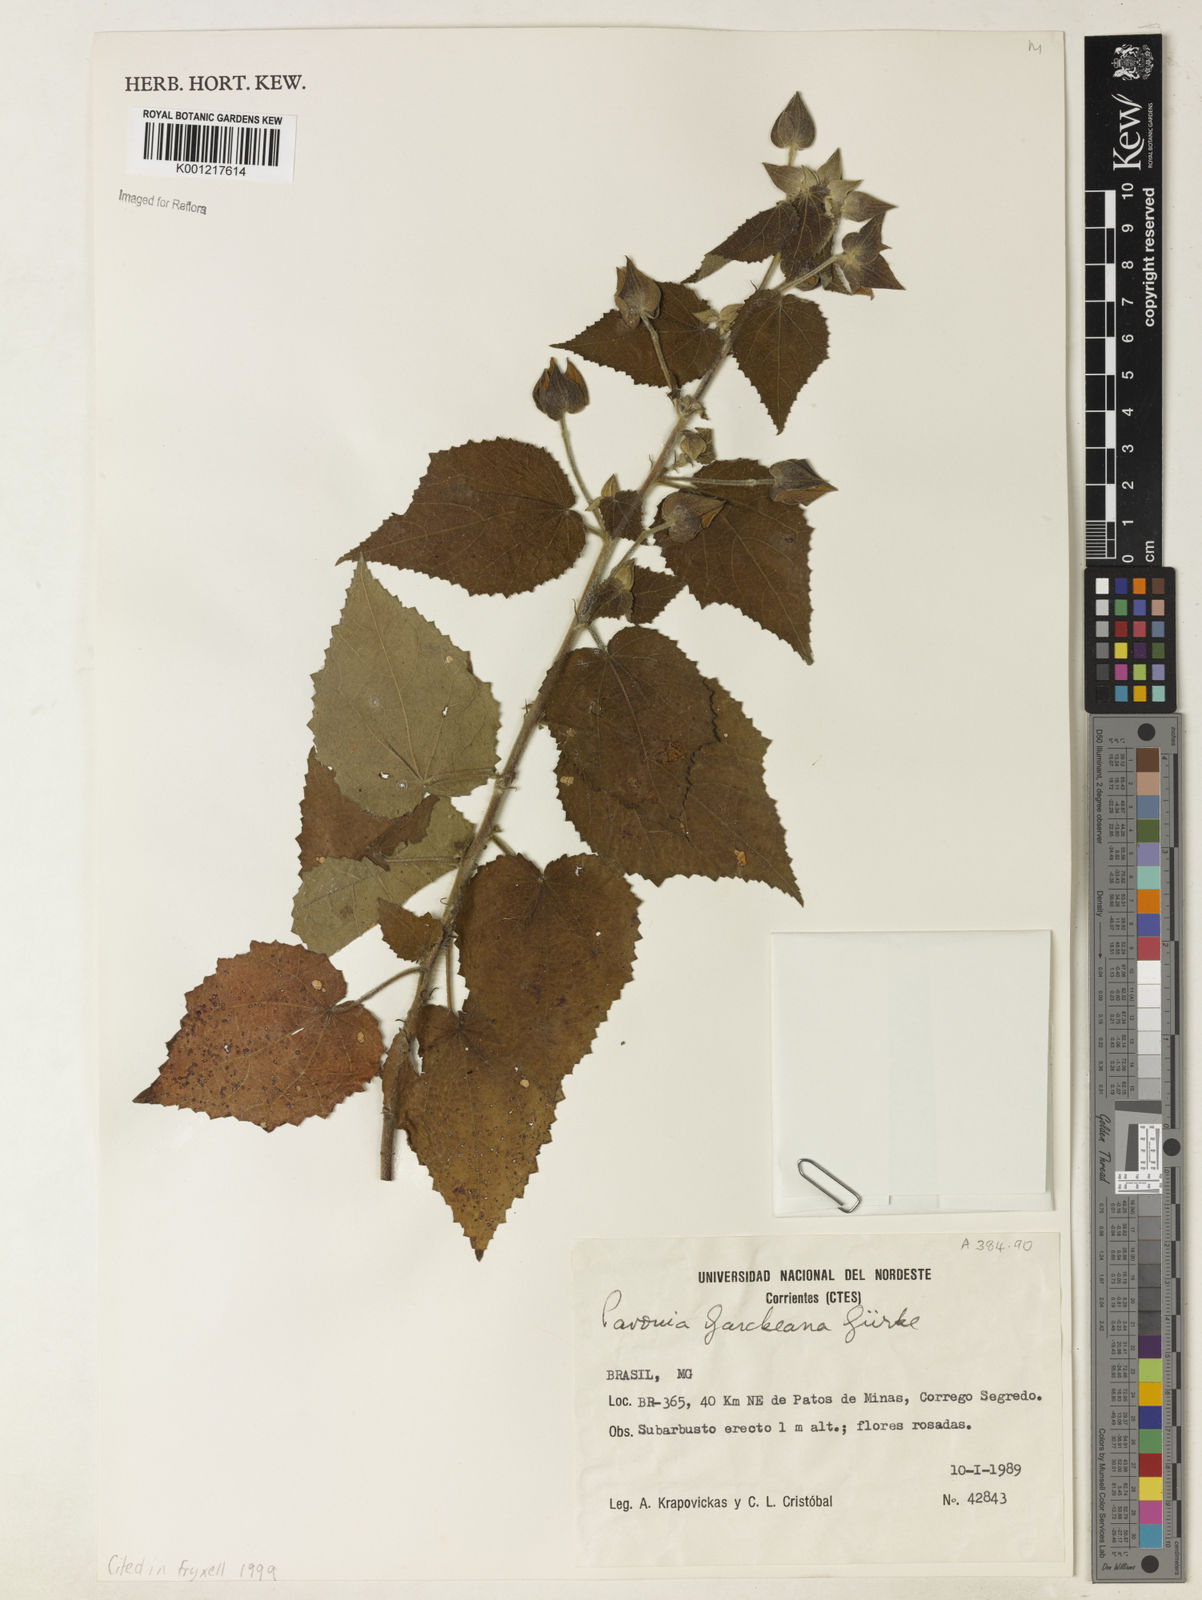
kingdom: Plantae
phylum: Tracheophyta
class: Magnoliopsida
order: Malvales
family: Malvaceae
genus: Pavonia
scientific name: Pavonia
